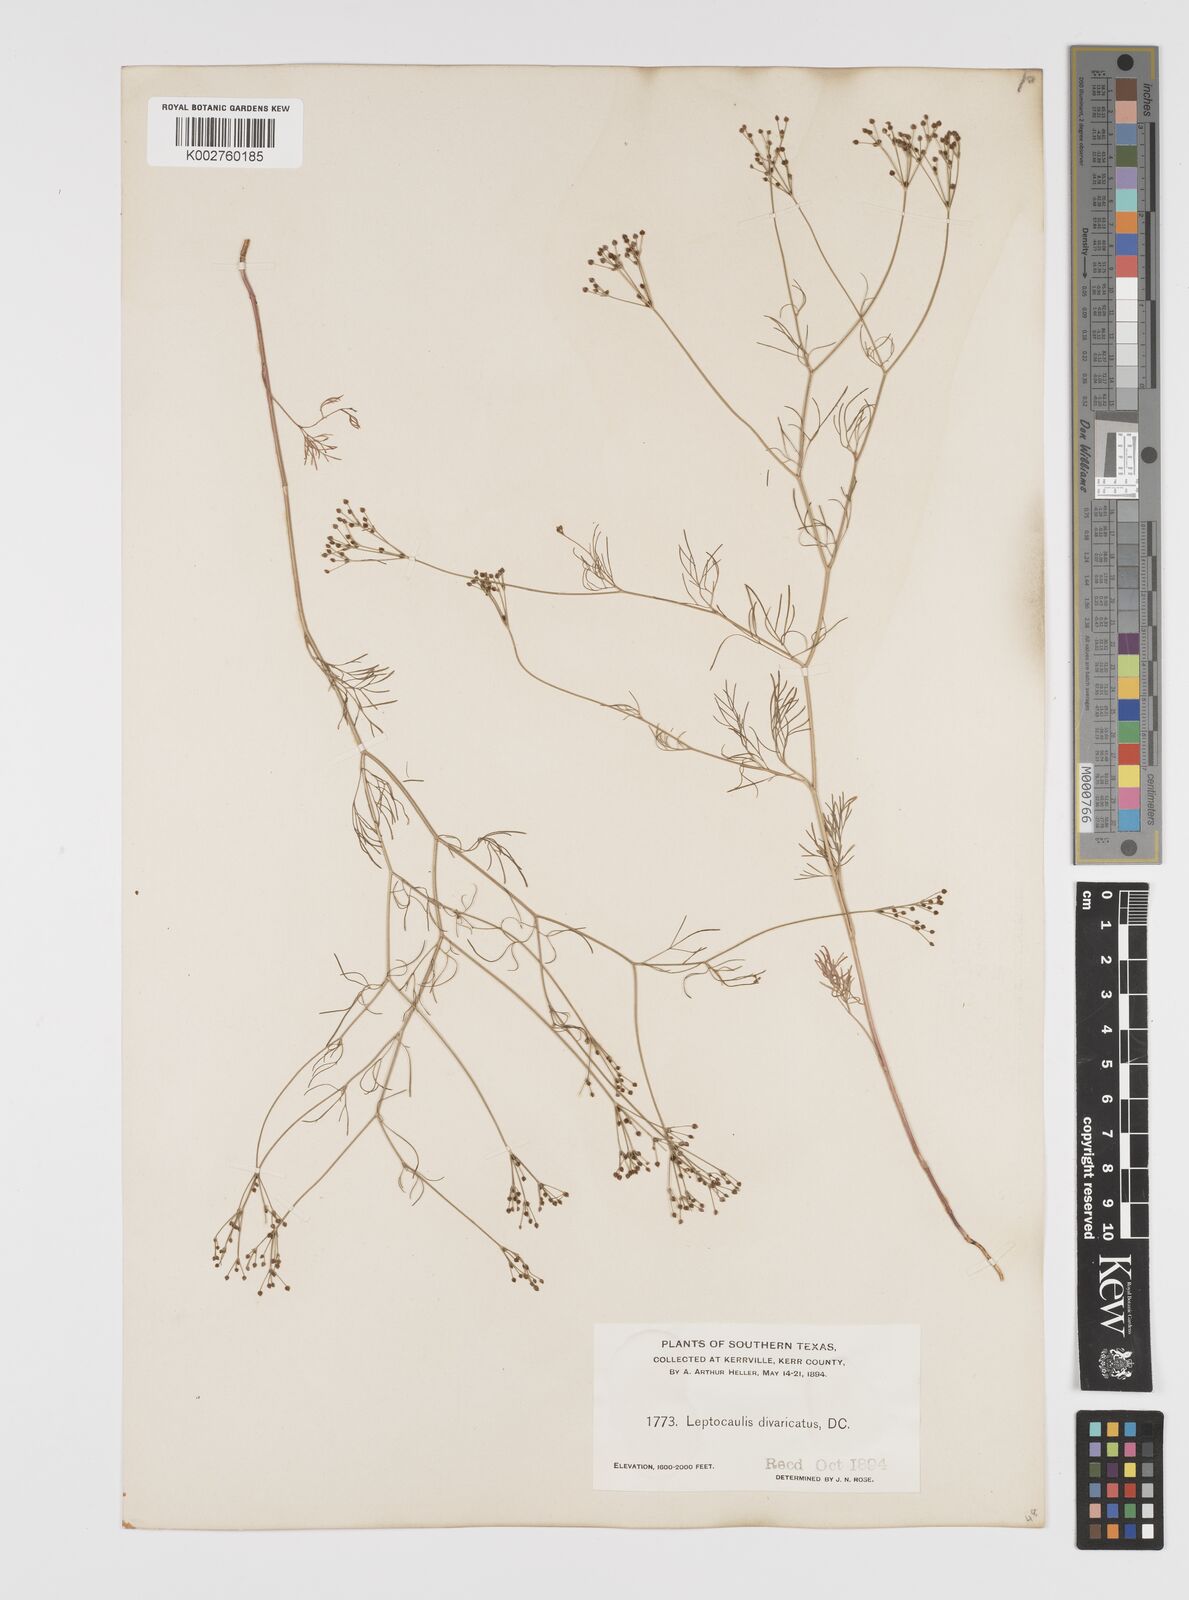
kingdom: Plantae
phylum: Tracheophyta
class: Magnoliopsida
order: Apiales
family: Apiaceae
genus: Spermolepis
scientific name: Spermolepis divaricata
